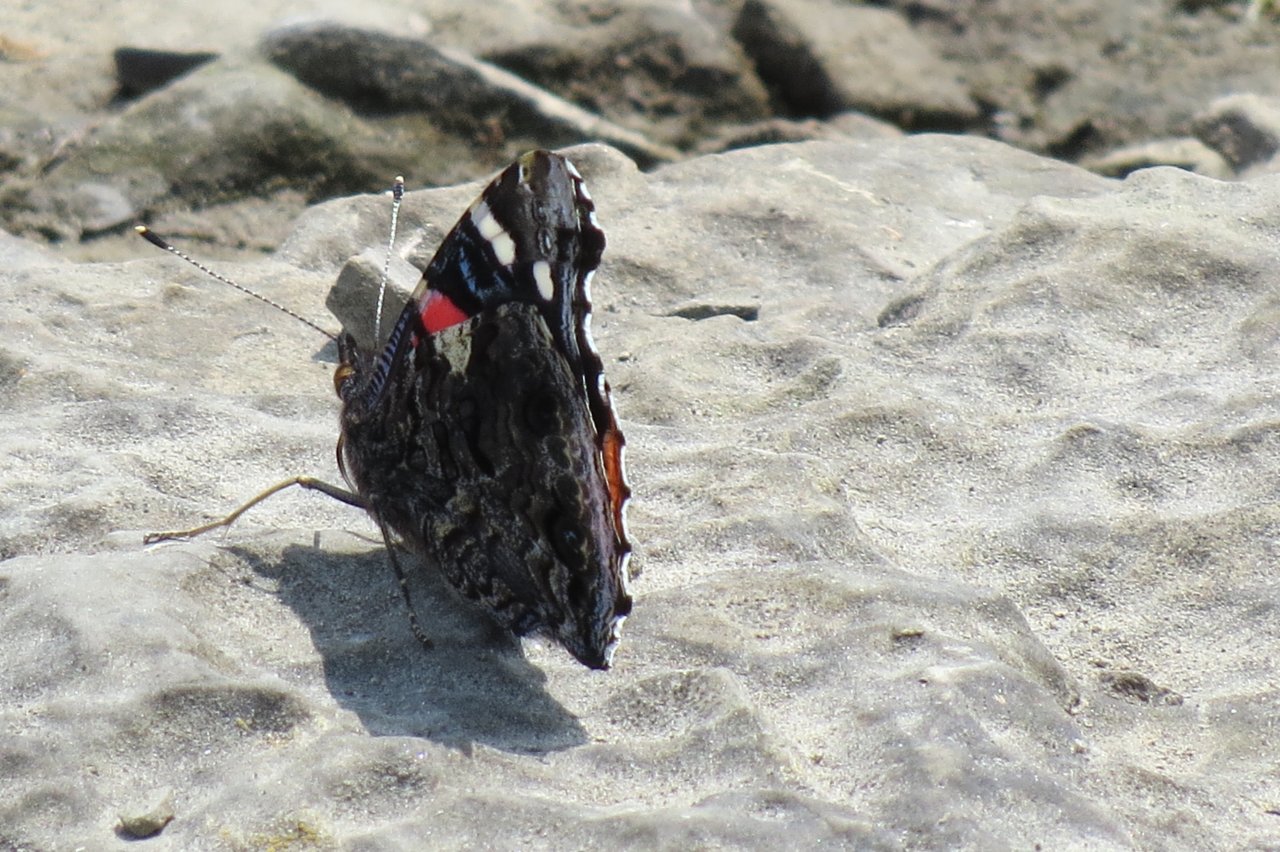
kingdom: Animalia
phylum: Arthropoda
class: Insecta
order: Lepidoptera
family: Nymphalidae
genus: Vanessa
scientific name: Vanessa atalanta
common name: Red Admiral
